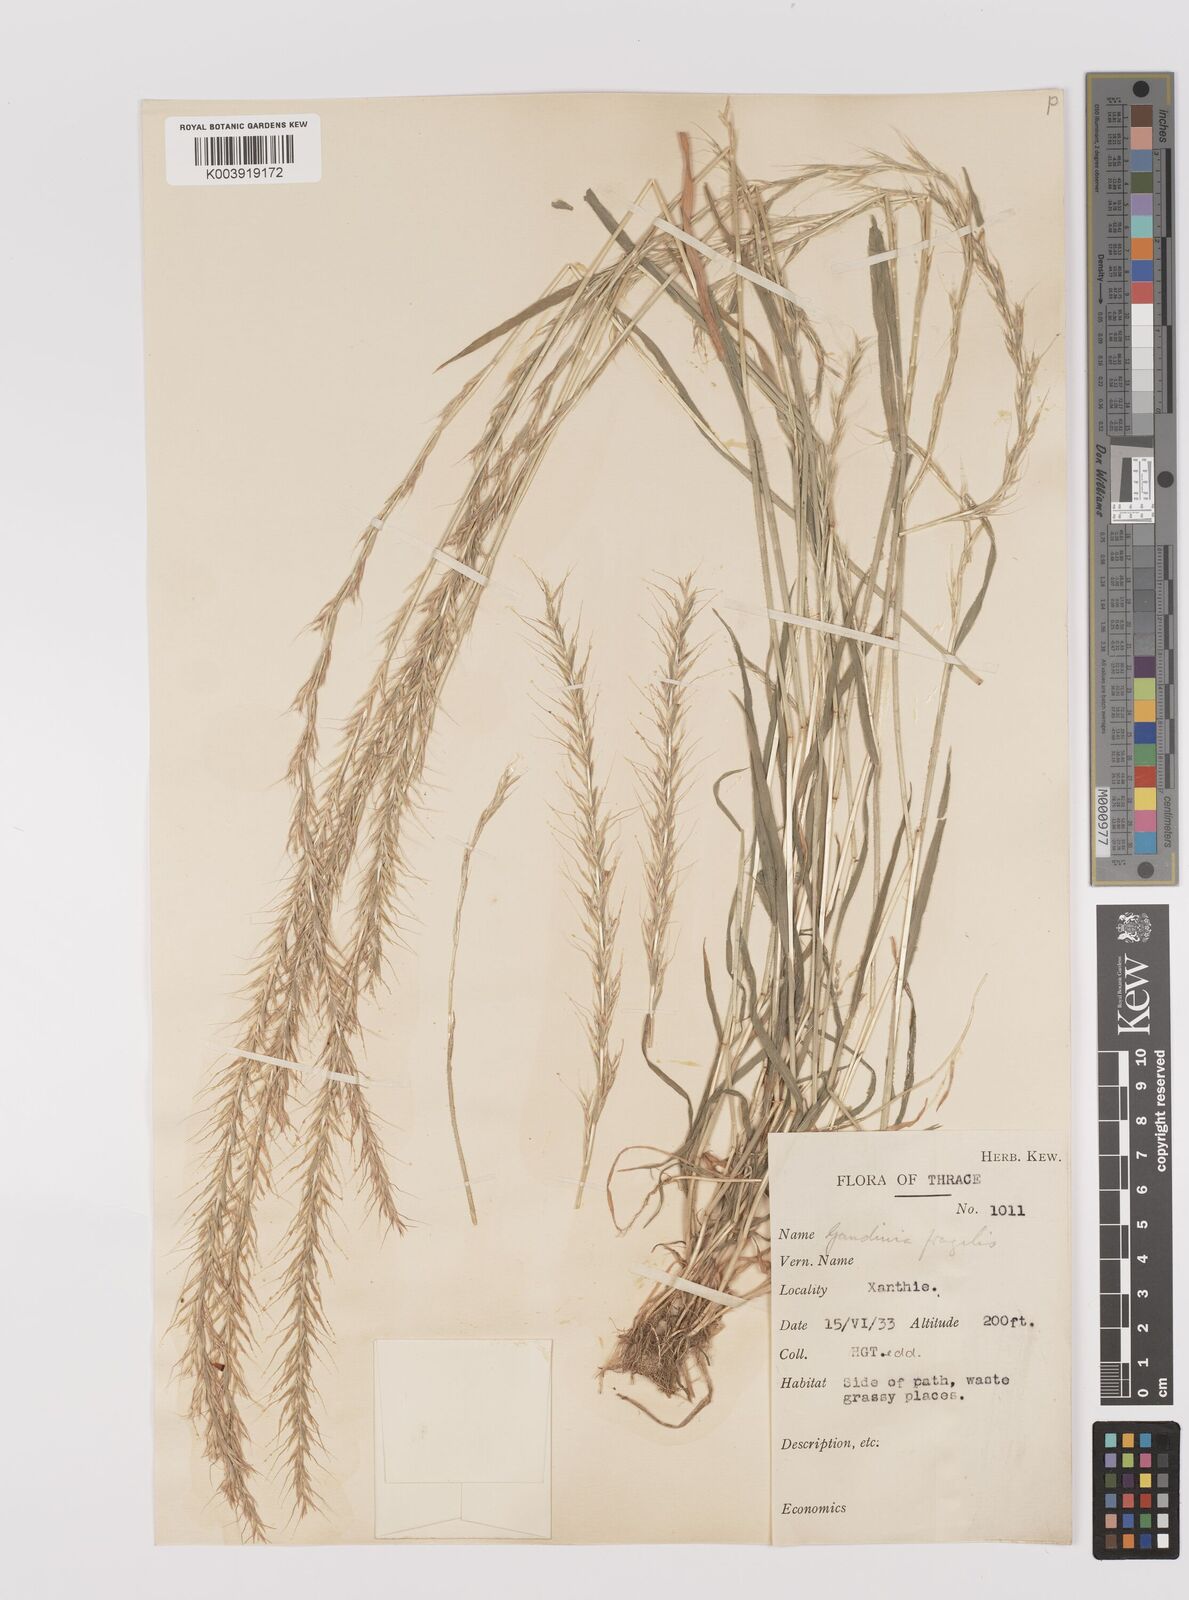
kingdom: Plantae
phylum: Tracheophyta
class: Liliopsida
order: Poales
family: Poaceae
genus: Gaudinia
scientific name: Gaudinia fragilis
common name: French oat-grass
